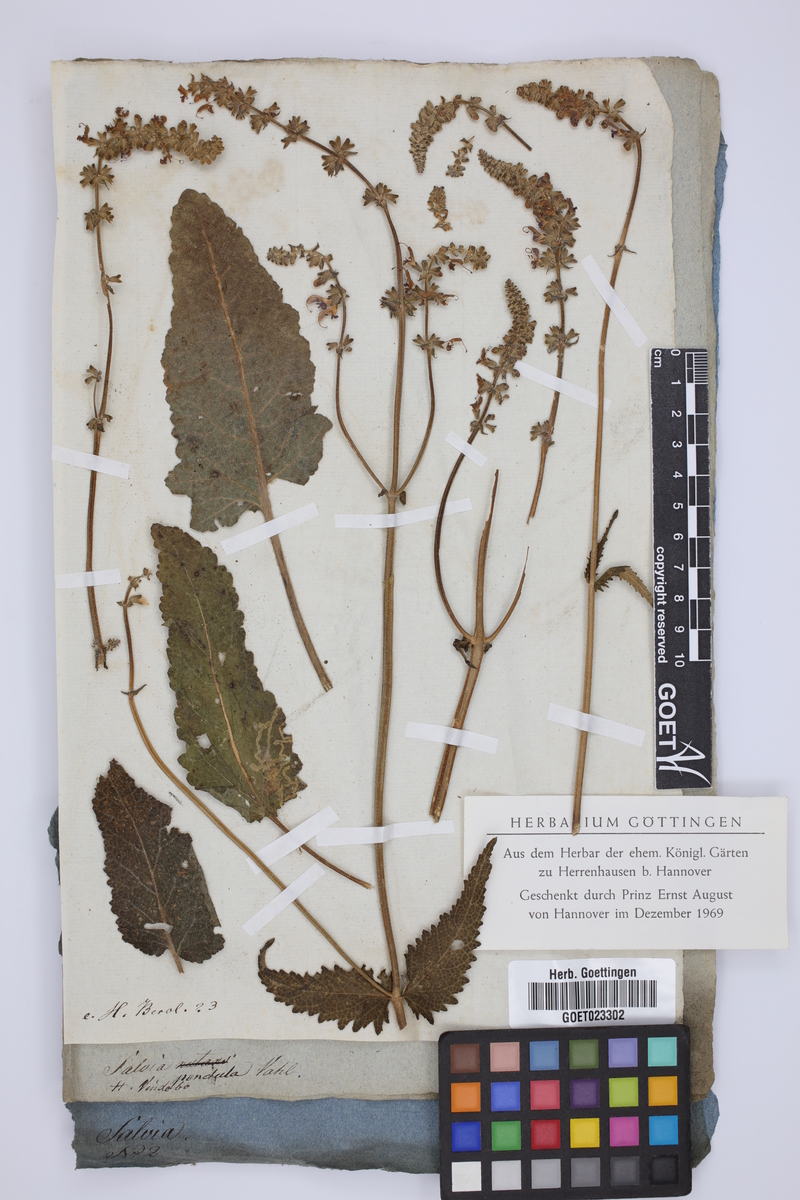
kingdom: Plantae
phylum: Tracheophyta
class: Magnoliopsida
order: Lamiales
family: Lamiaceae
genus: Salvia
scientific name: Salvia pendula
